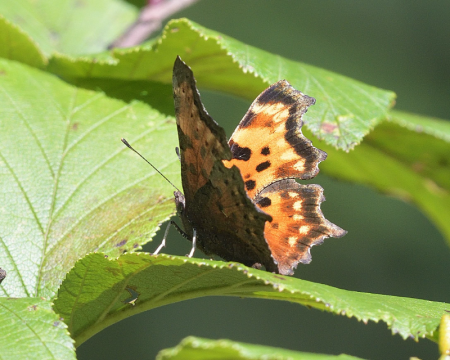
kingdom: Animalia
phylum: Arthropoda
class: Insecta
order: Lepidoptera
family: Nymphalidae
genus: Polygonia
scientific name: Polygonia faunus
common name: Green Comma
